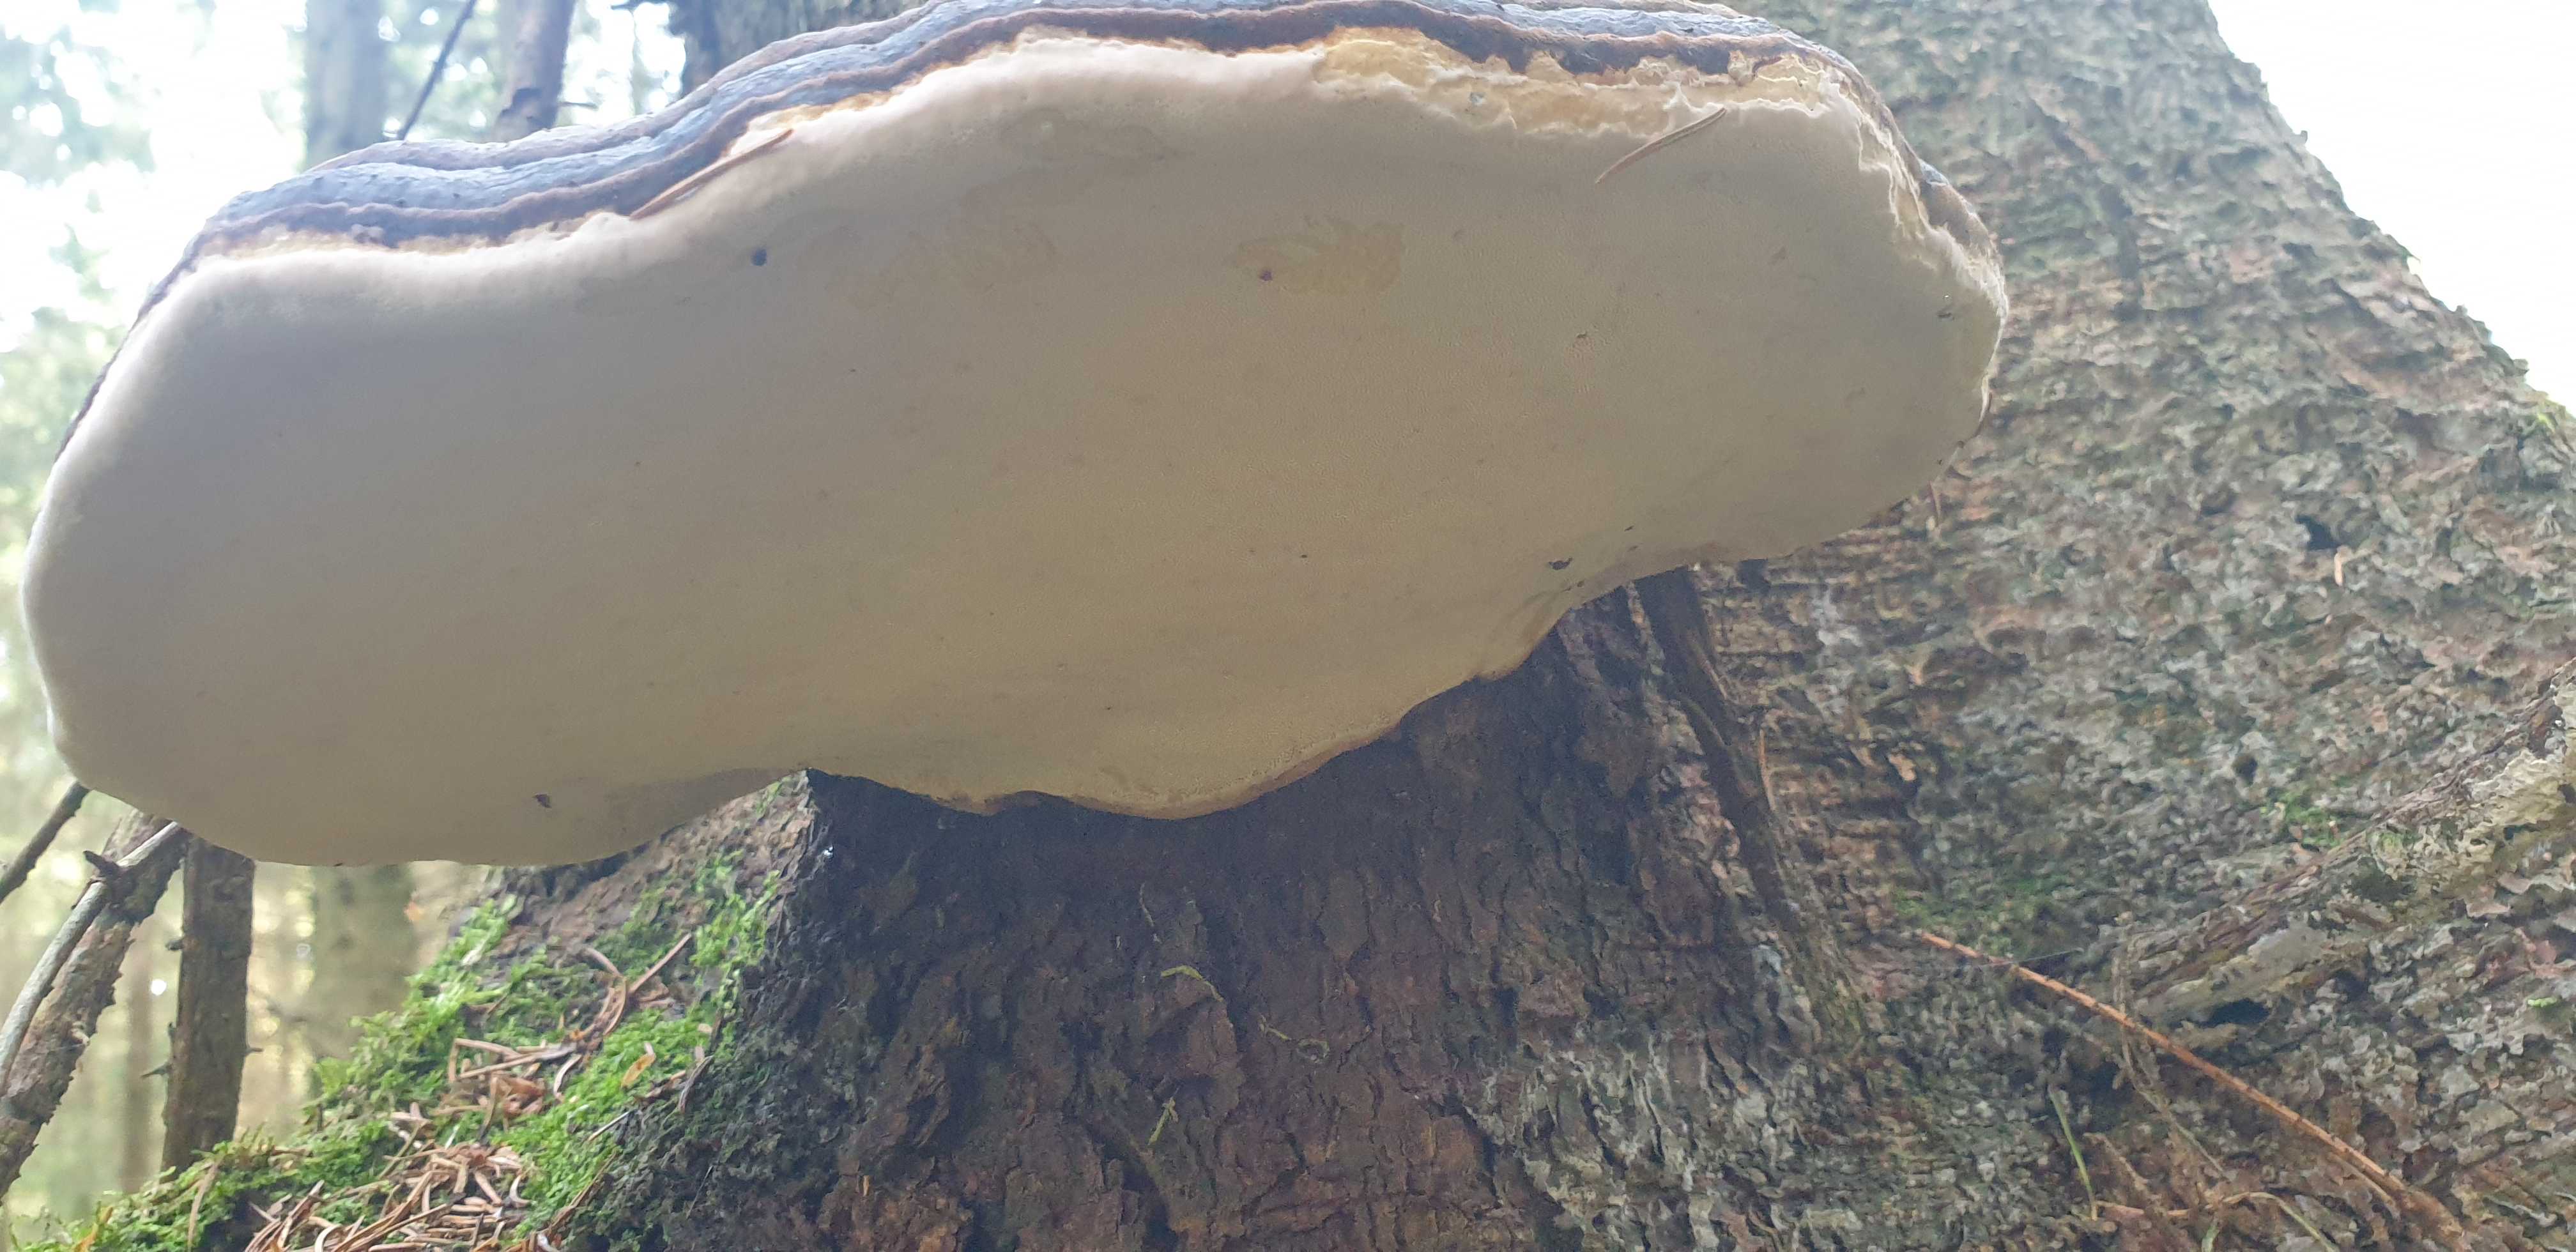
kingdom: Fungi
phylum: Basidiomycota
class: Agaricomycetes
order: Polyporales
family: Fomitopsidaceae
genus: Fomitopsis
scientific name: Fomitopsis pinicola
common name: randbæltet hovporesvamp
